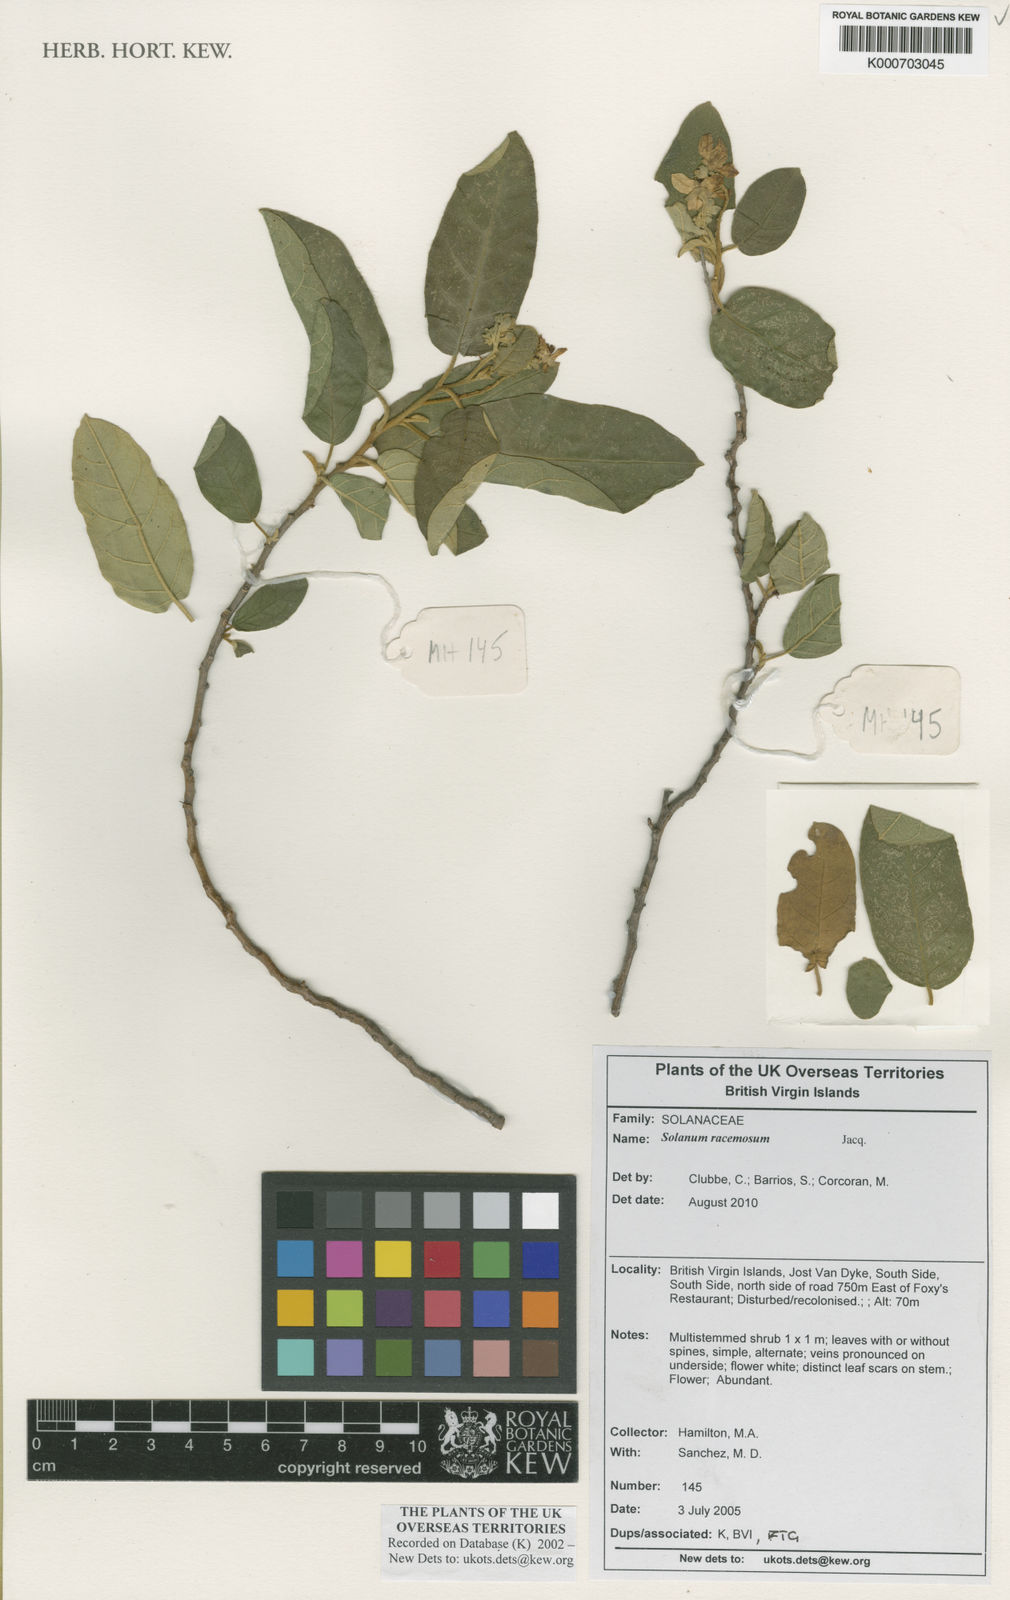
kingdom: Plantae
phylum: Tracheophyta
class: Magnoliopsida
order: Solanales
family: Solanaceae
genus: Solanum
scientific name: Solanum bahamense
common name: Canker-berry
